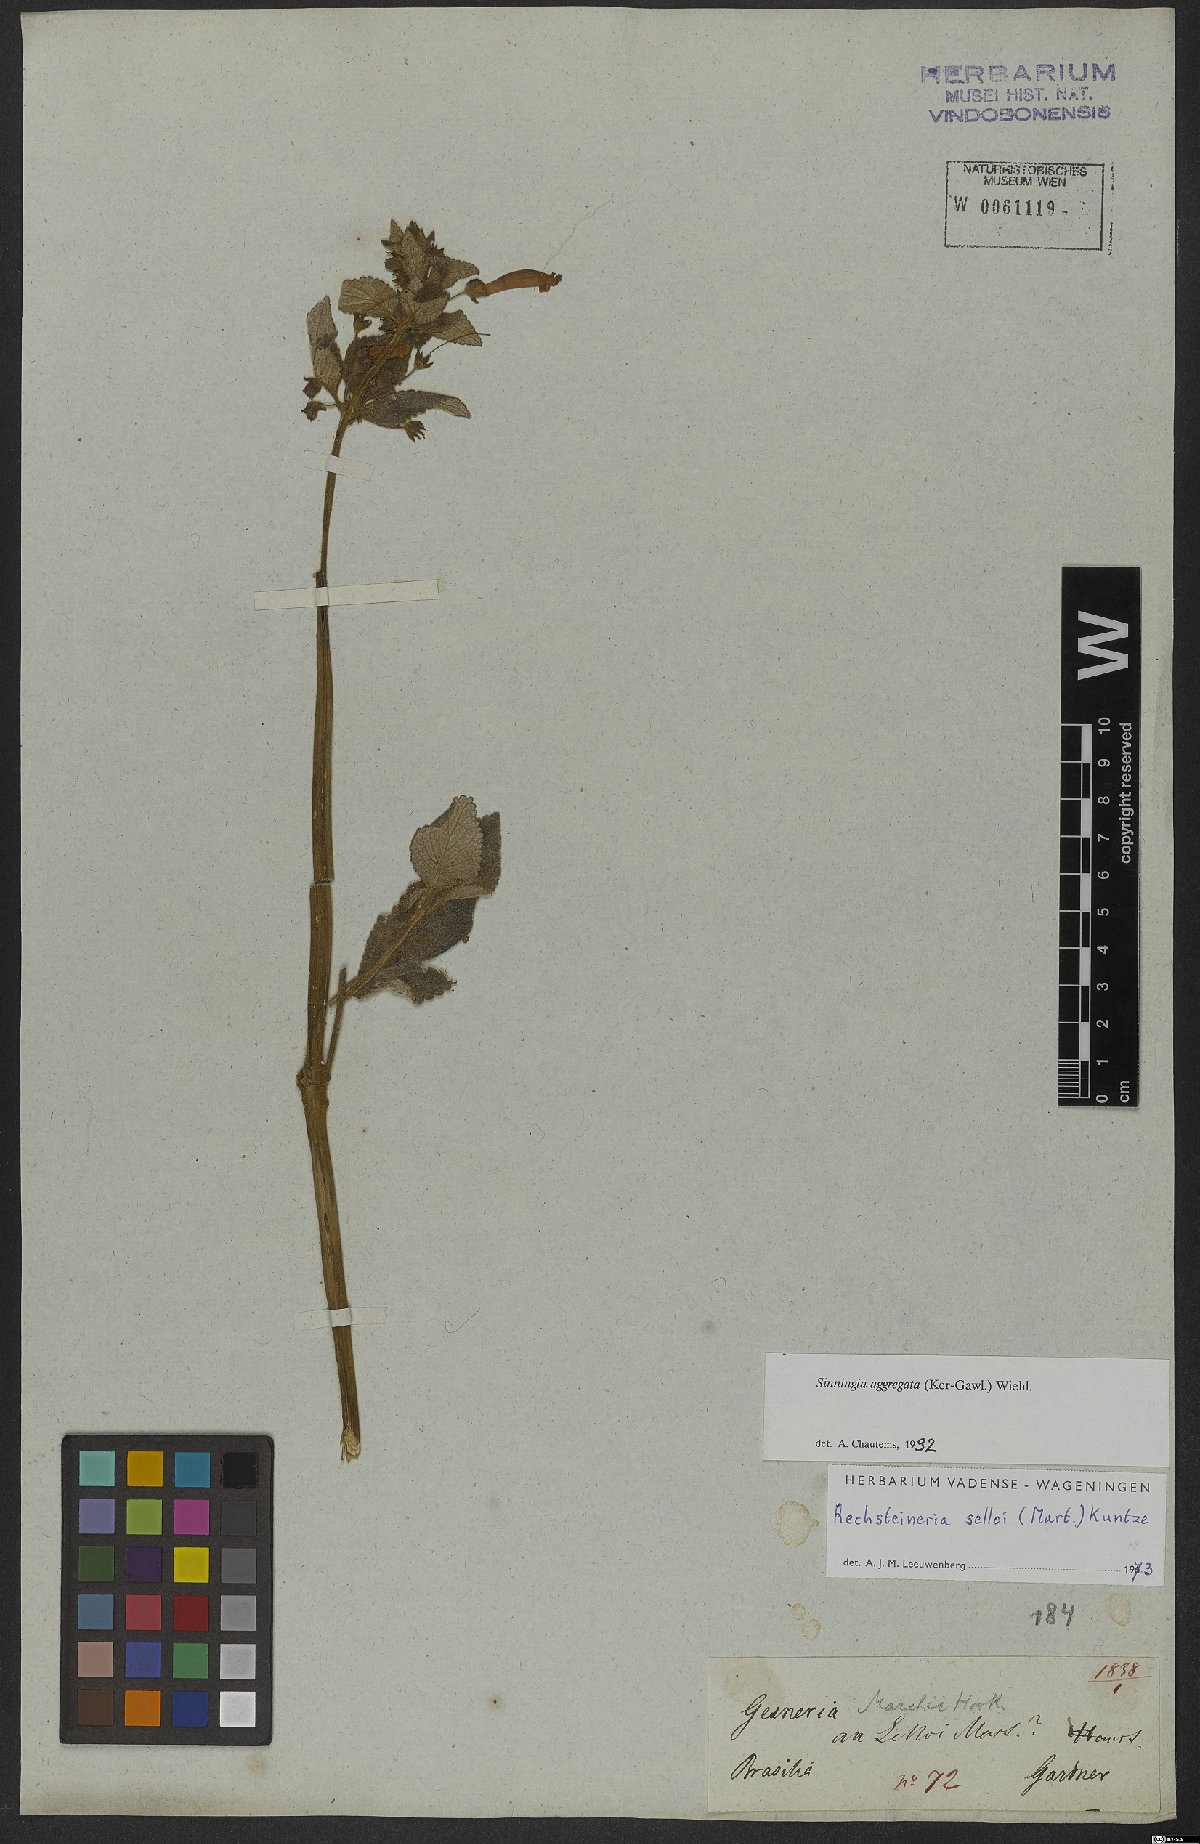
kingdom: Plantae
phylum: Tracheophyta
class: Magnoliopsida
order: Lamiales
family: Gesneriaceae
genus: Sinningia
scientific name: Sinningia aggregata
